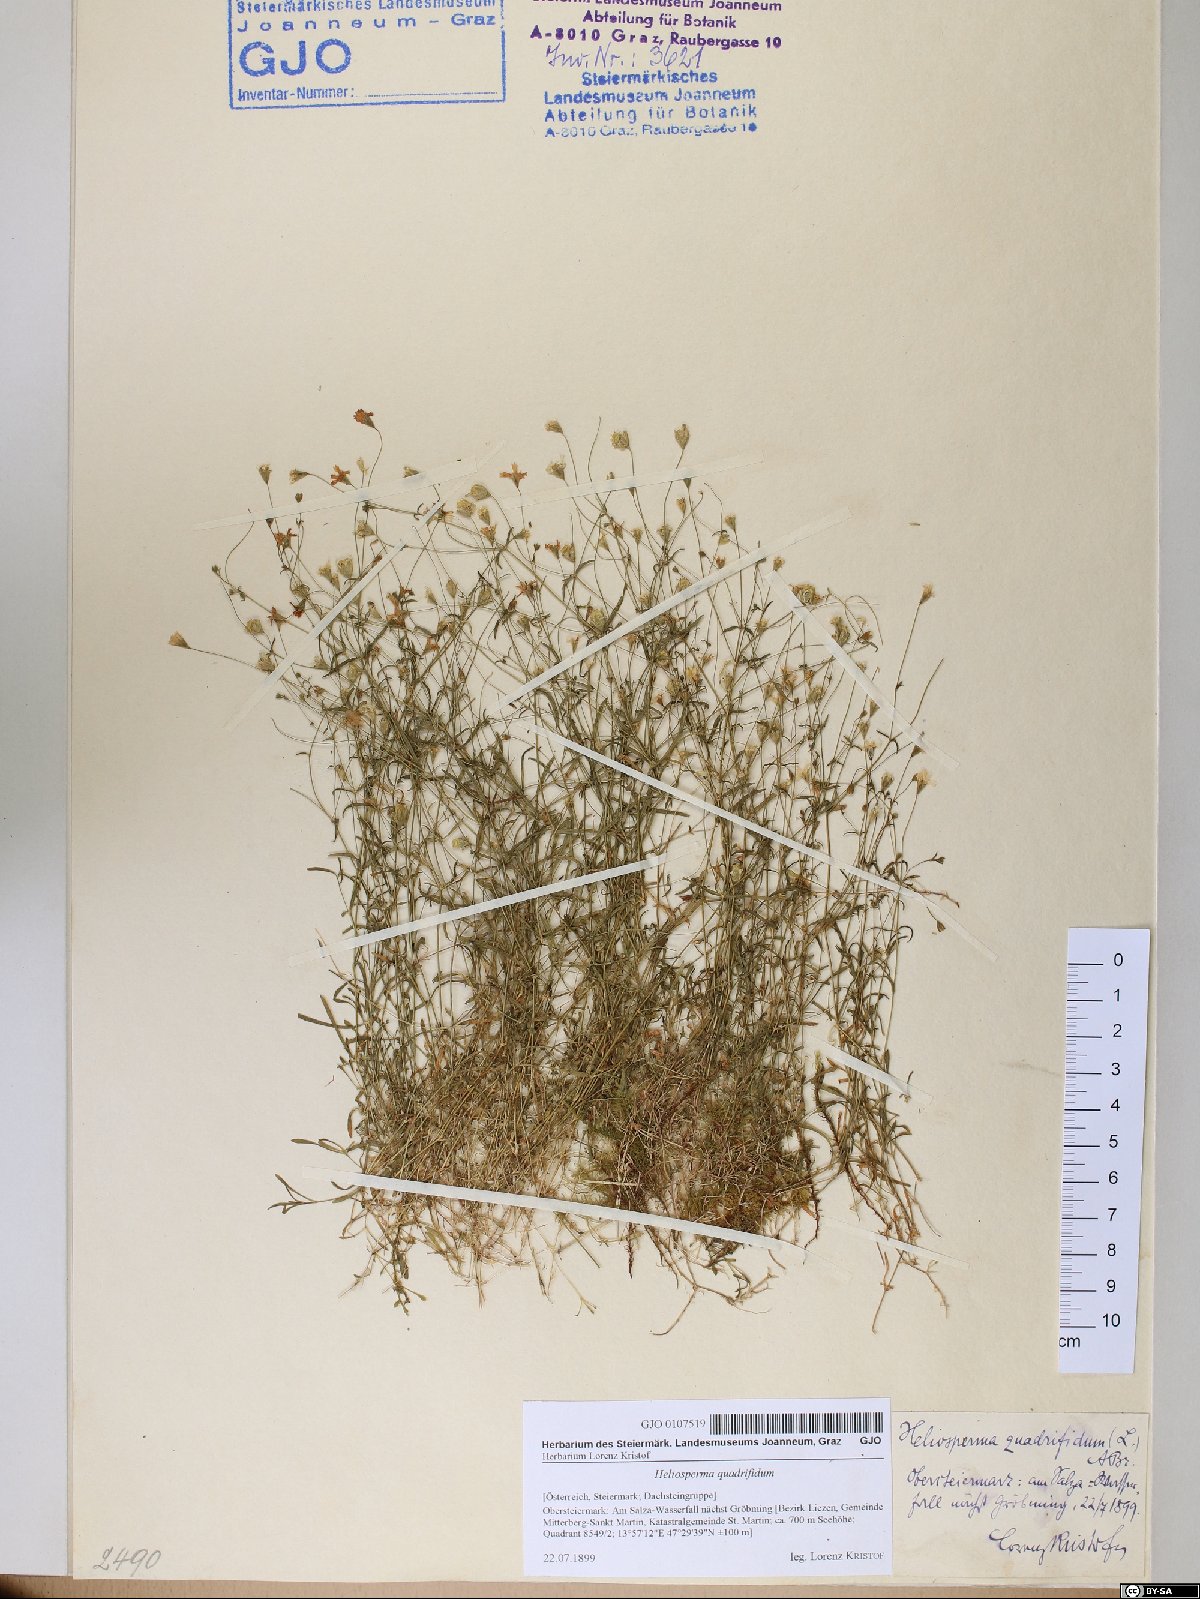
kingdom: Plantae
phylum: Tracheophyta
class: Magnoliopsida
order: Caryophyllales
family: Caryophyllaceae
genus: Heliosperma
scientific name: Heliosperma alpestre
